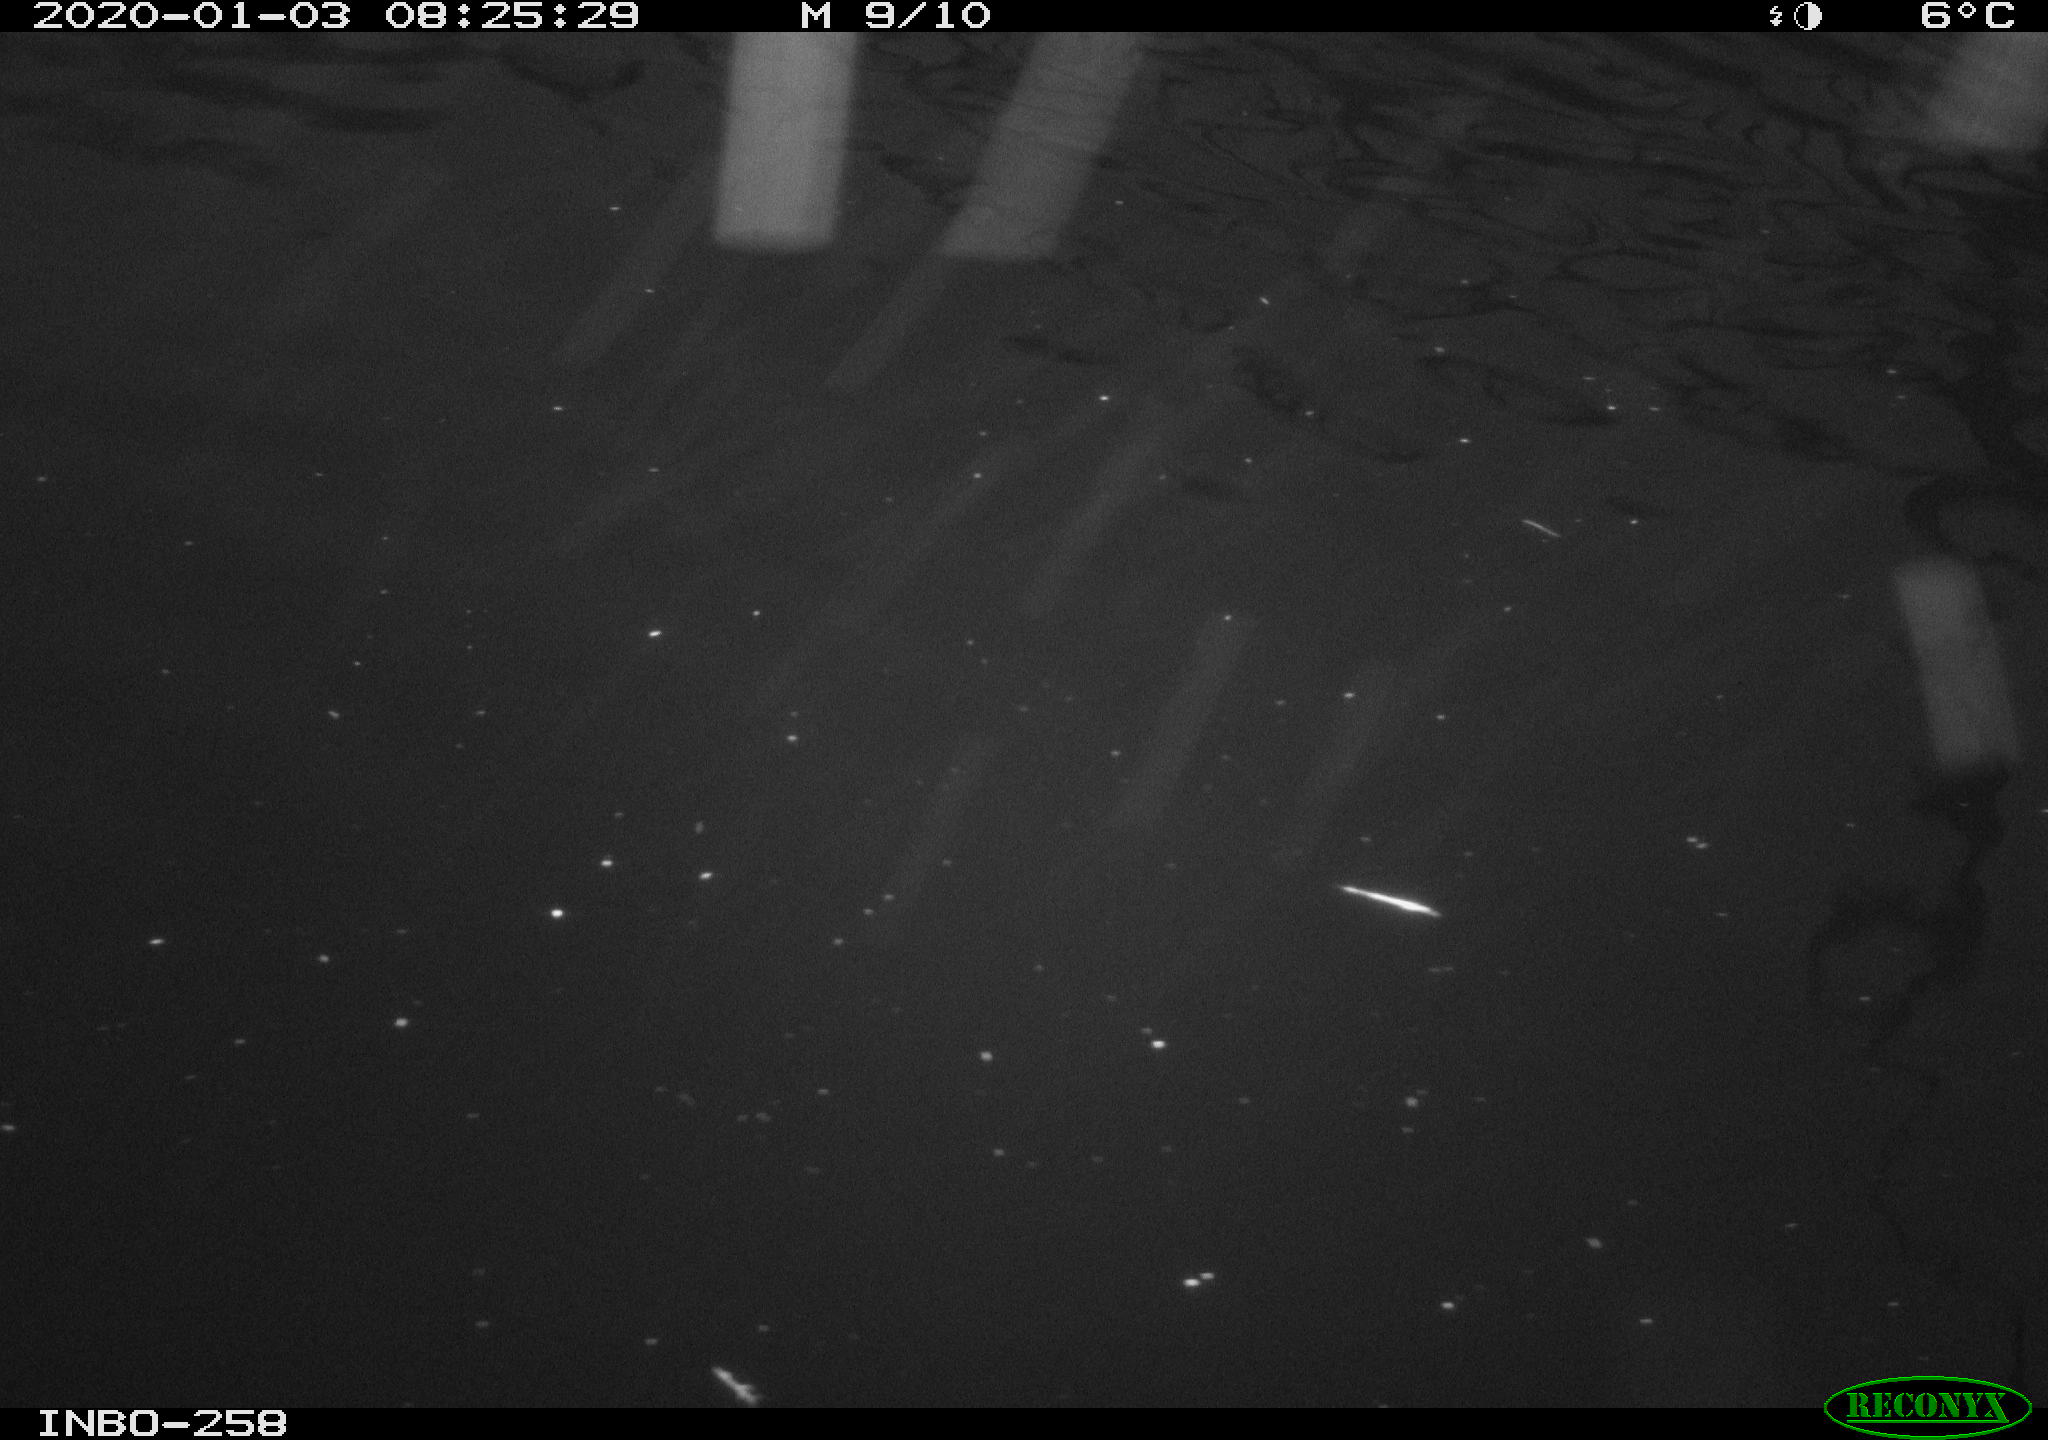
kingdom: Animalia
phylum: Chordata
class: Aves
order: Gruiformes
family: Rallidae
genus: Gallinula
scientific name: Gallinula chloropus
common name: Common moorhen
